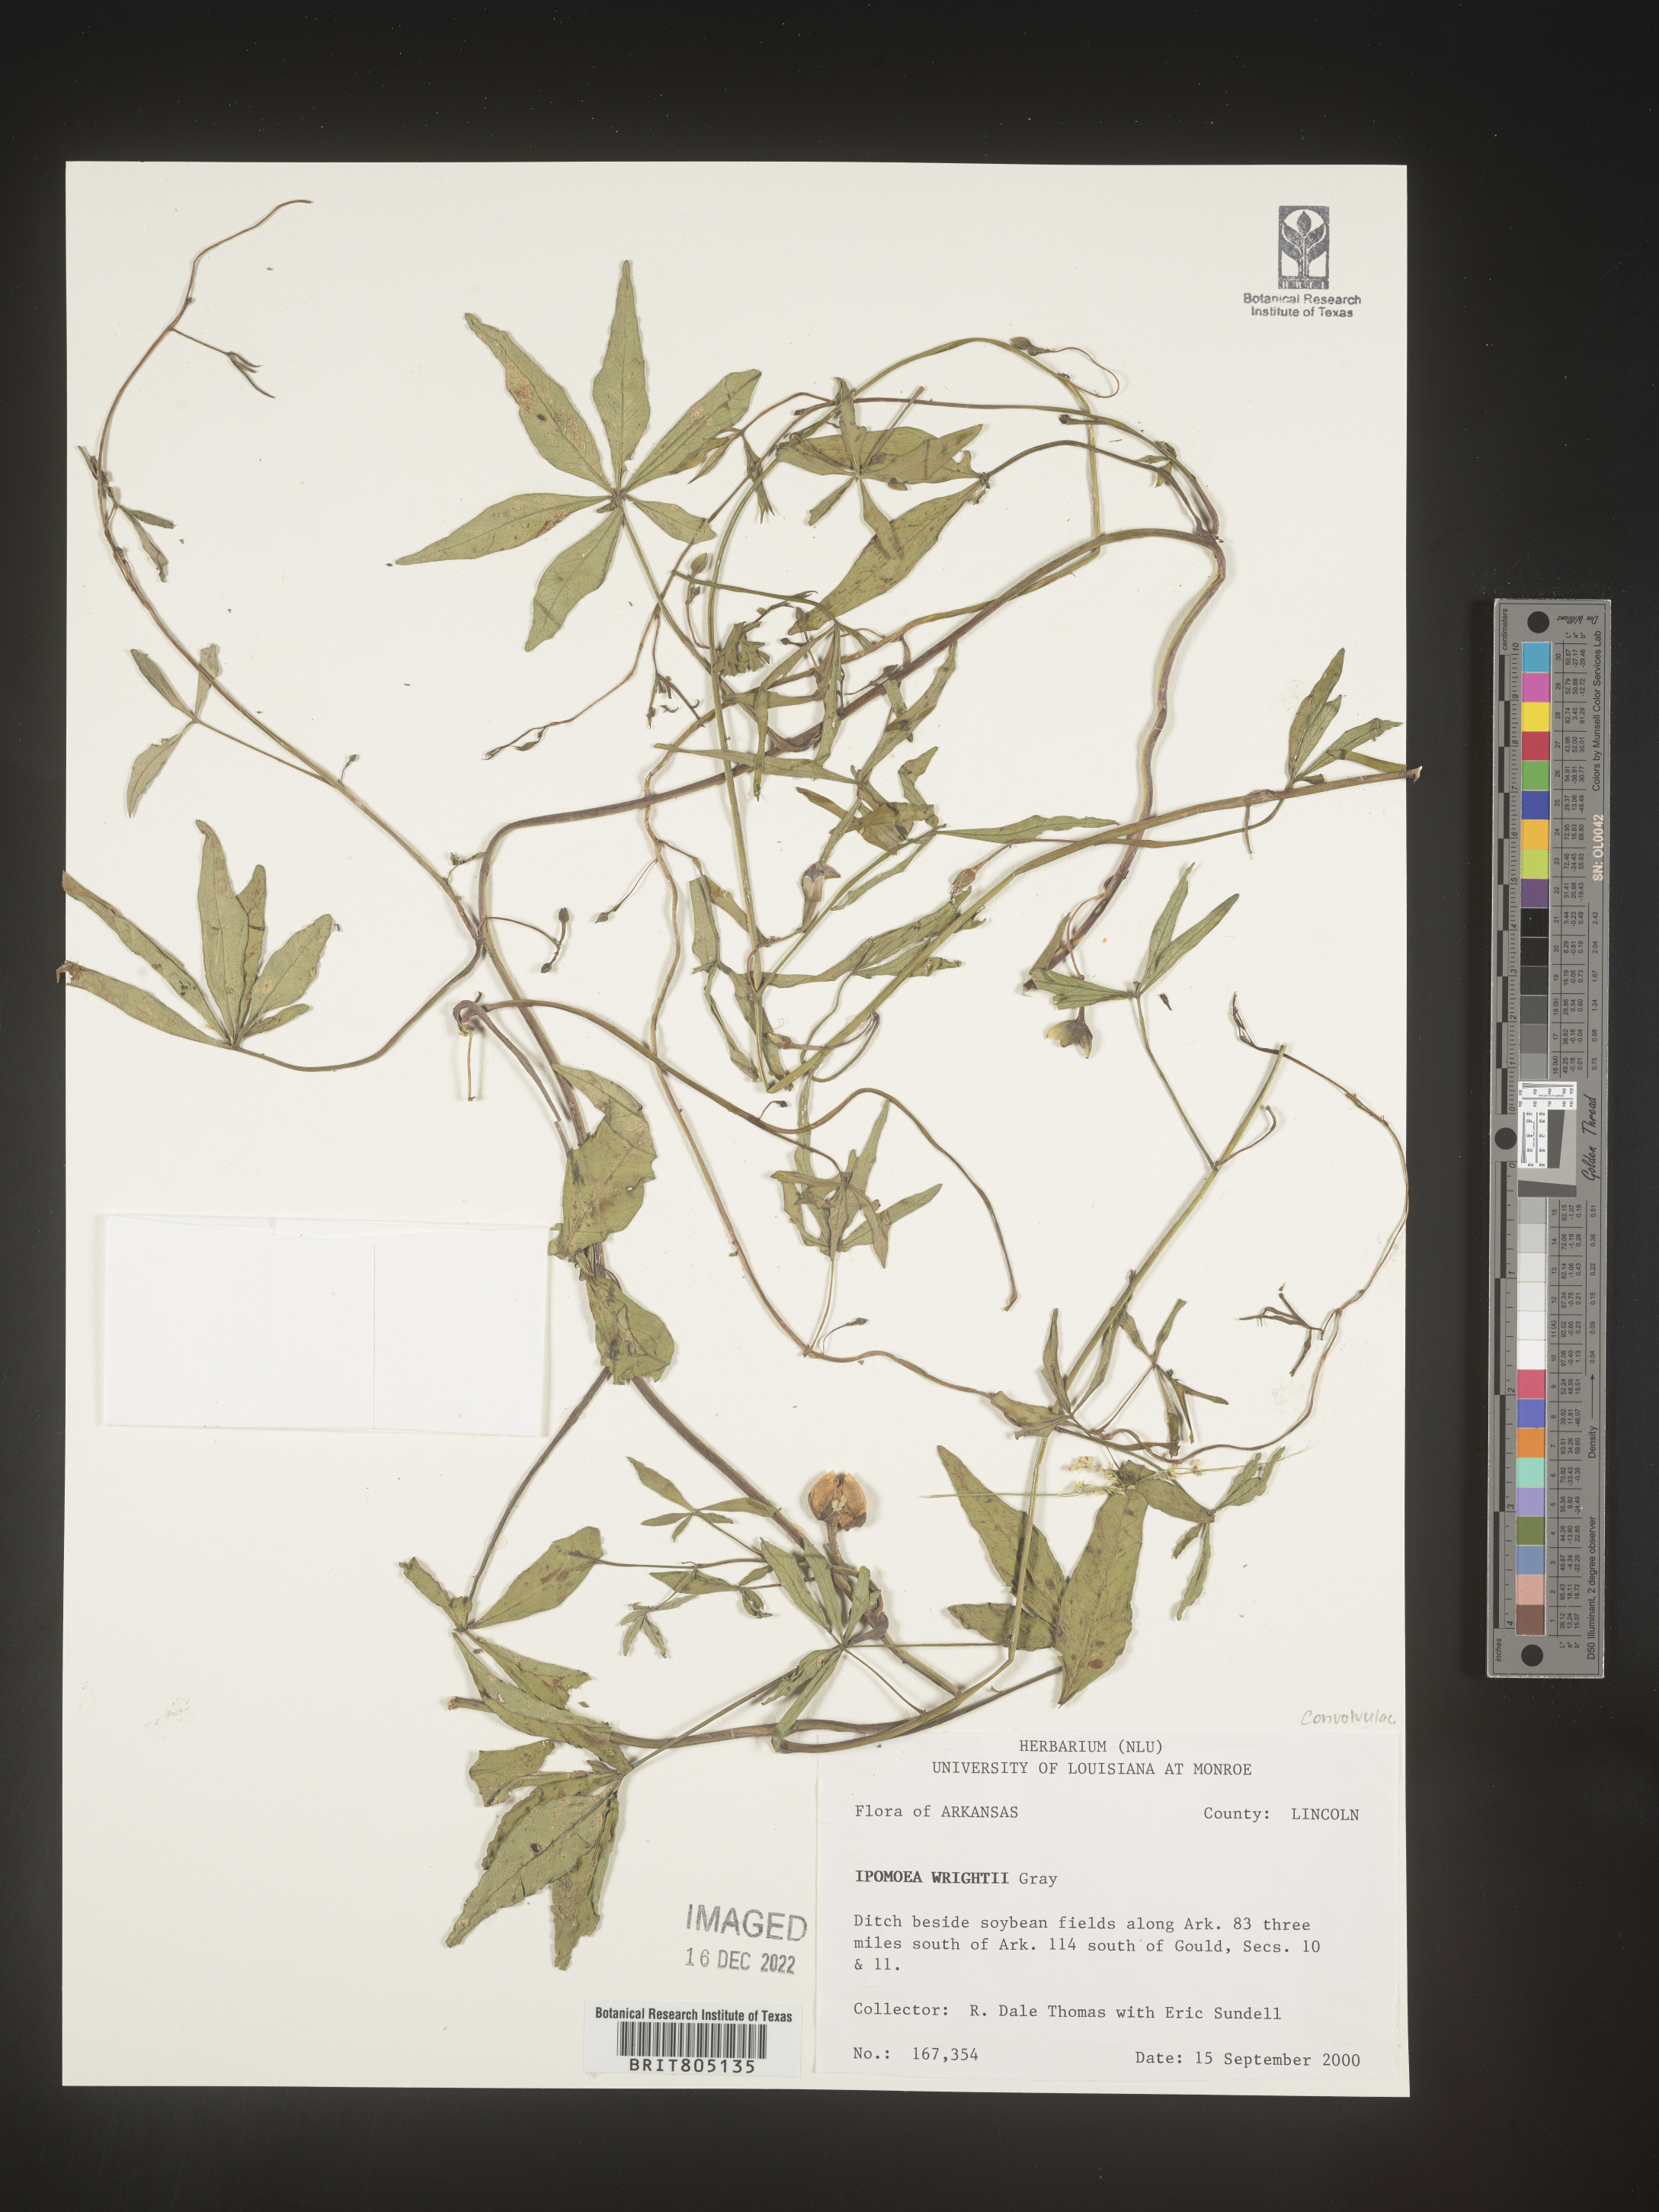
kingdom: Plantae
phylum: Tracheophyta
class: Magnoliopsida
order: Solanales
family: Convolvulaceae
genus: Ipomoea
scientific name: Ipomoea heptaphylla
